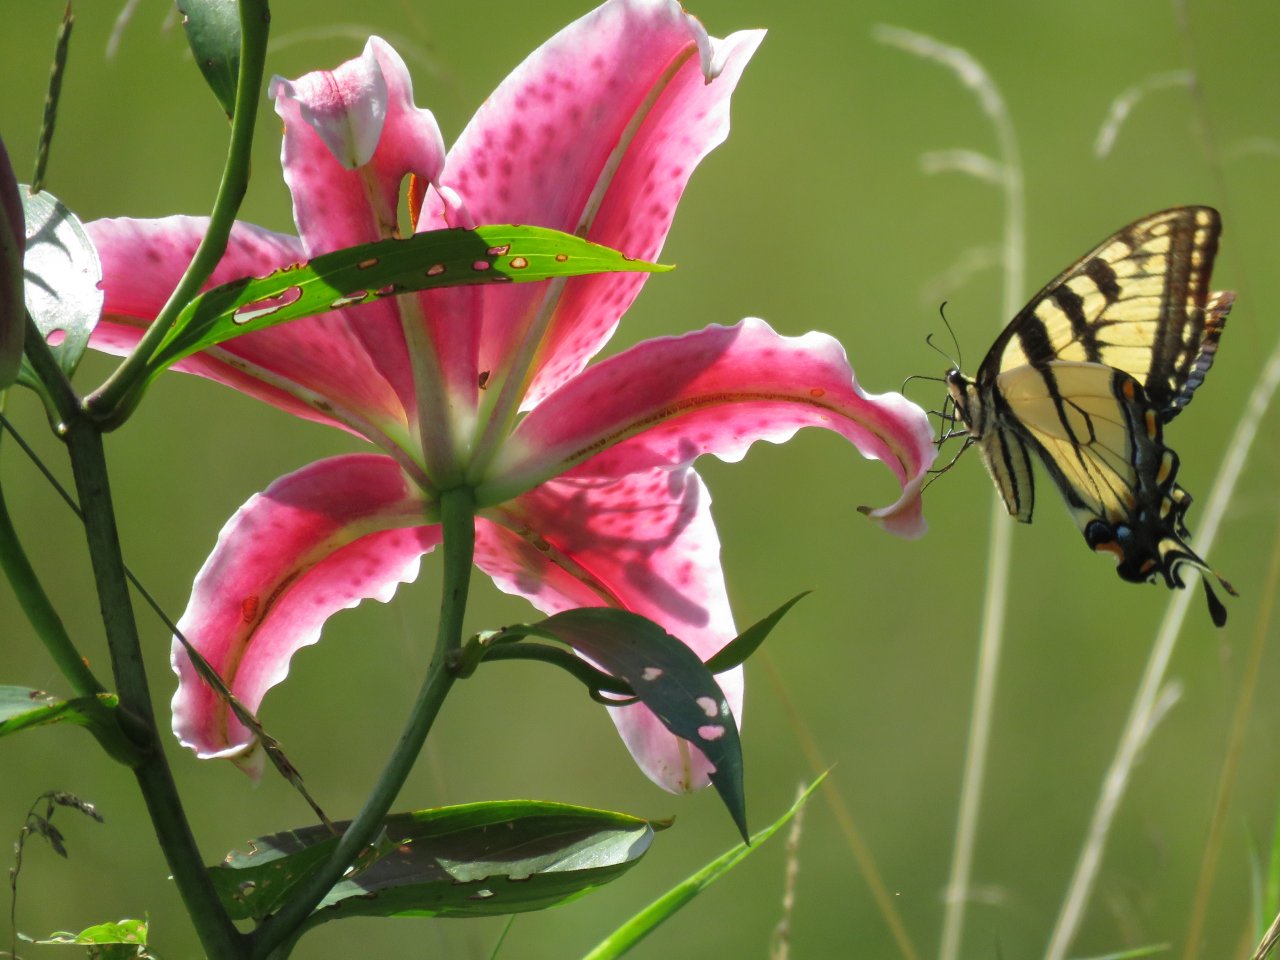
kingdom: Animalia
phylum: Arthropoda
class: Insecta
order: Lepidoptera
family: Papilionidae
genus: Pterourus
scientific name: Pterourus glaucus
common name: Eastern Tiger Swallowtail
